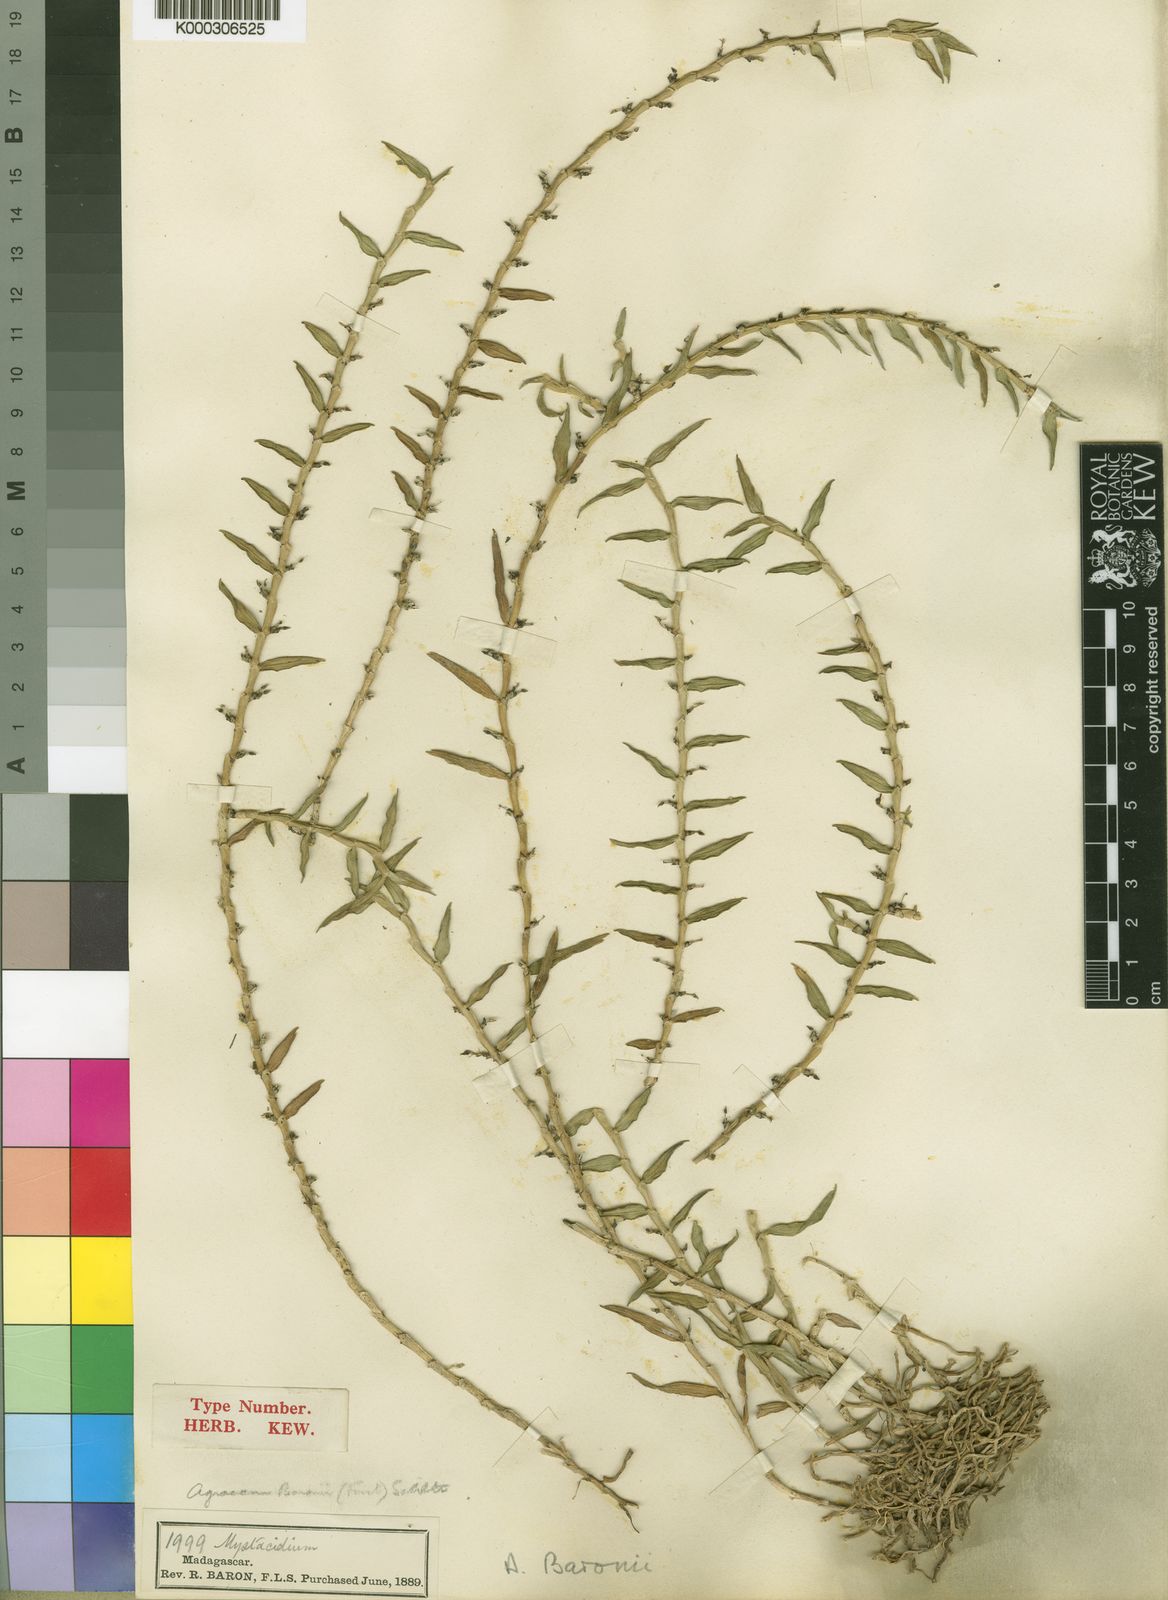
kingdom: Plantae
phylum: Tracheophyta
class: Liliopsida
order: Asparagales
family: Orchidaceae
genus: Angraecum
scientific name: Angraecum baronii
